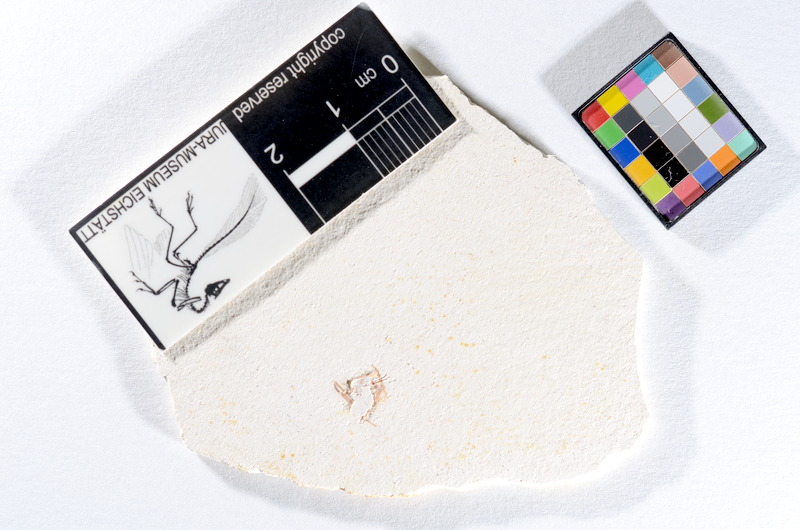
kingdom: Animalia
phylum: Chordata
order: Salmoniformes
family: Orthogonikleithridae
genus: Orthogonikleithrus
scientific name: Orthogonikleithrus hoelli
